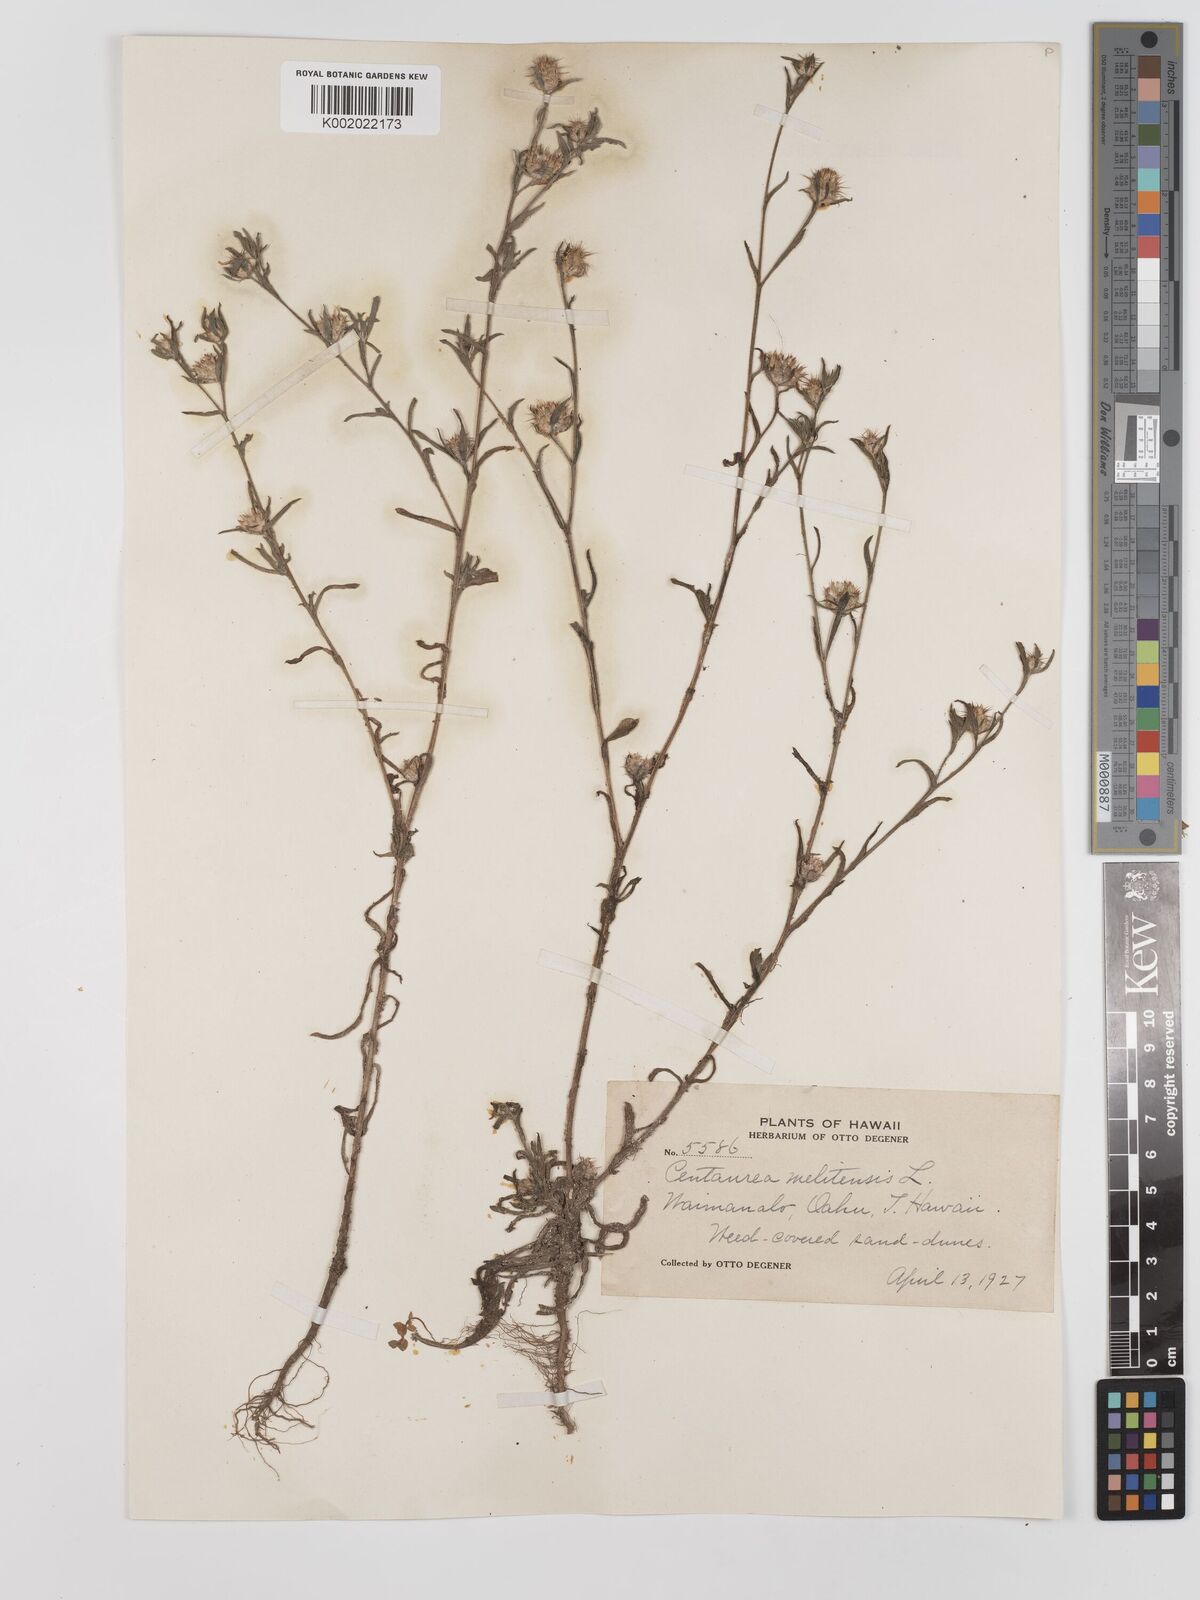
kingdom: Plantae
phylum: Tracheophyta
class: Magnoliopsida
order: Asterales
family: Asteraceae
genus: Centaurea
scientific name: Centaurea melitensis
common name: Maltese star-thistle
